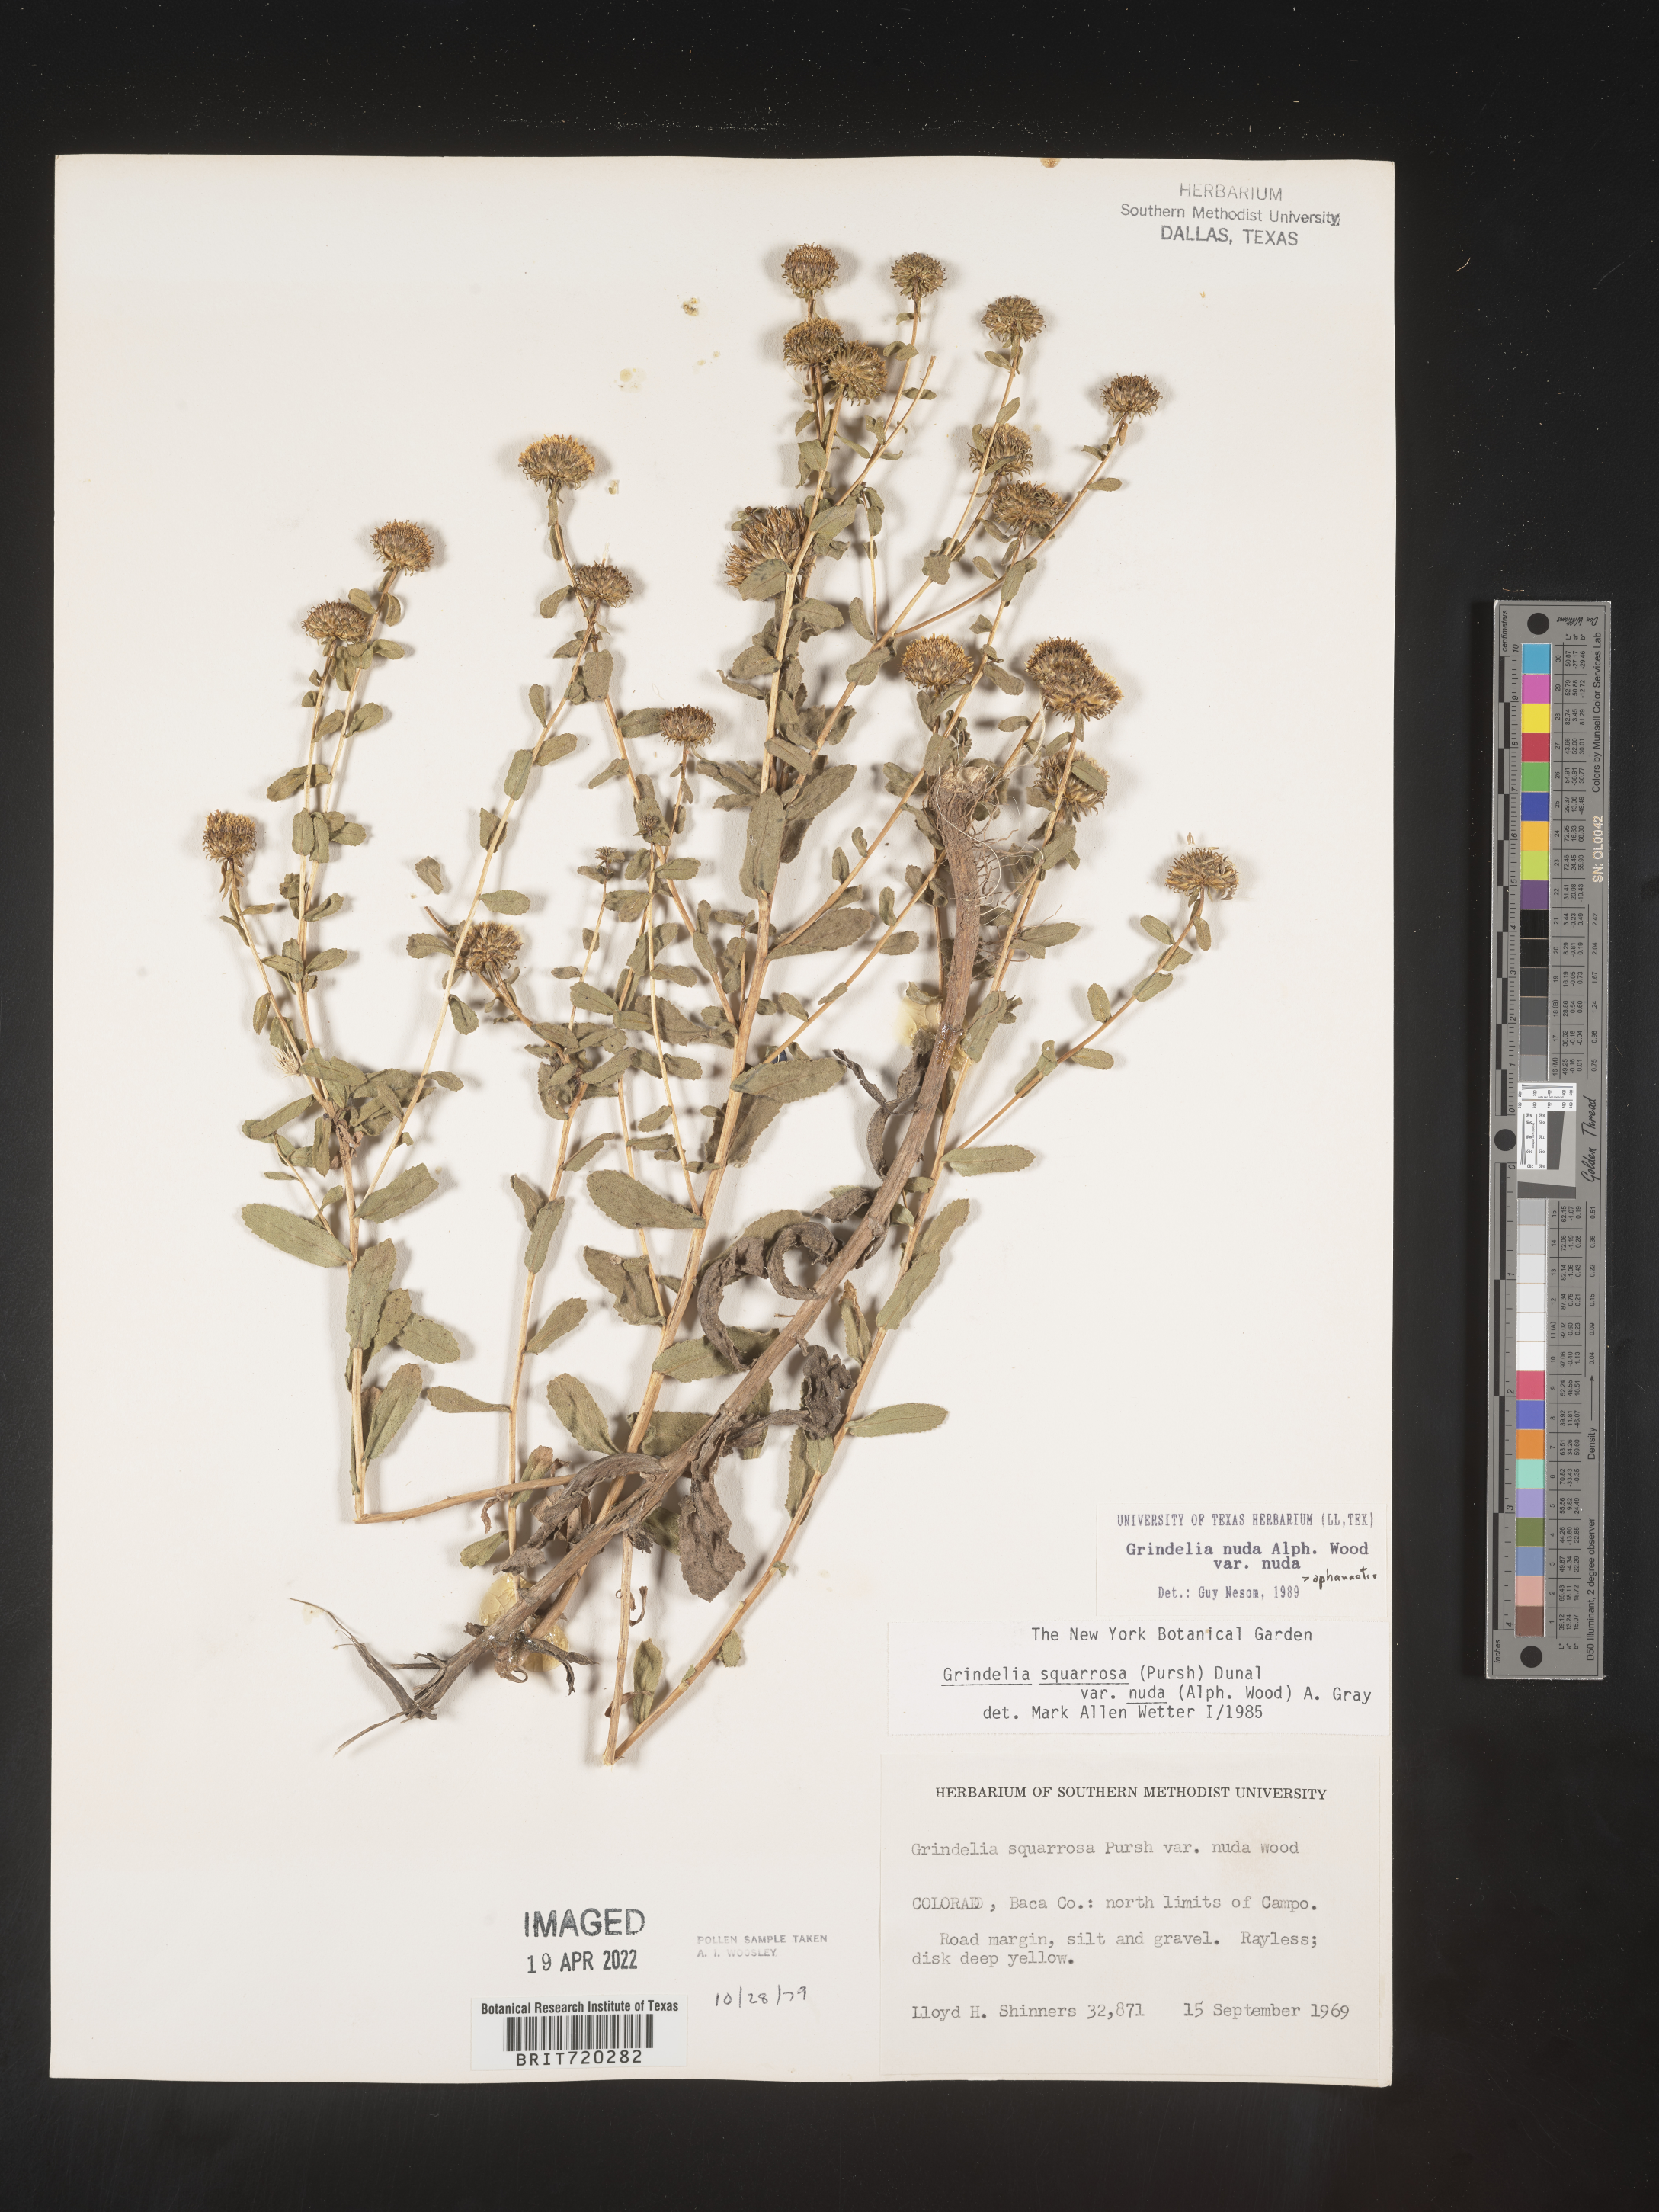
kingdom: Plantae
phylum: Tracheophyta
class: Magnoliopsida
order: Asterales
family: Asteraceae
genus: Grindelia
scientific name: Grindelia nuda
